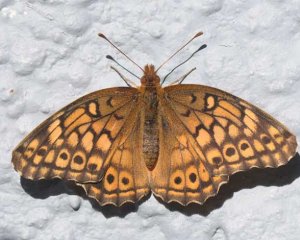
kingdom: Animalia
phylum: Arthropoda
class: Insecta
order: Lepidoptera
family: Nymphalidae
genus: Euptoieta
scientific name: Euptoieta claudia
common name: Variegated Fritillary
